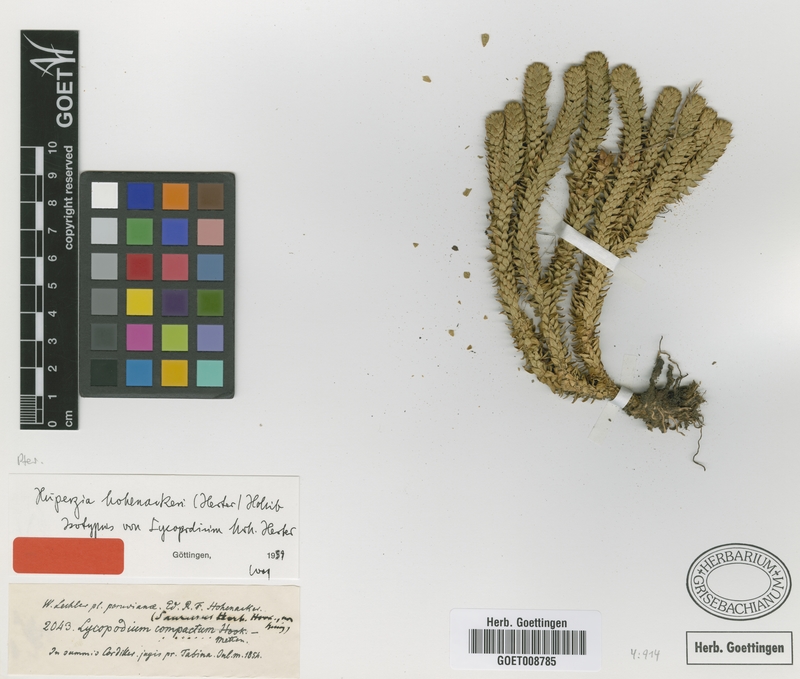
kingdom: Plantae
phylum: Tracheophyta
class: Lycopodiopsida
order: Lycopodiales
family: Lycopodiaceae
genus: Phlegmariurus
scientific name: Phlegmariurus hohenackeri
